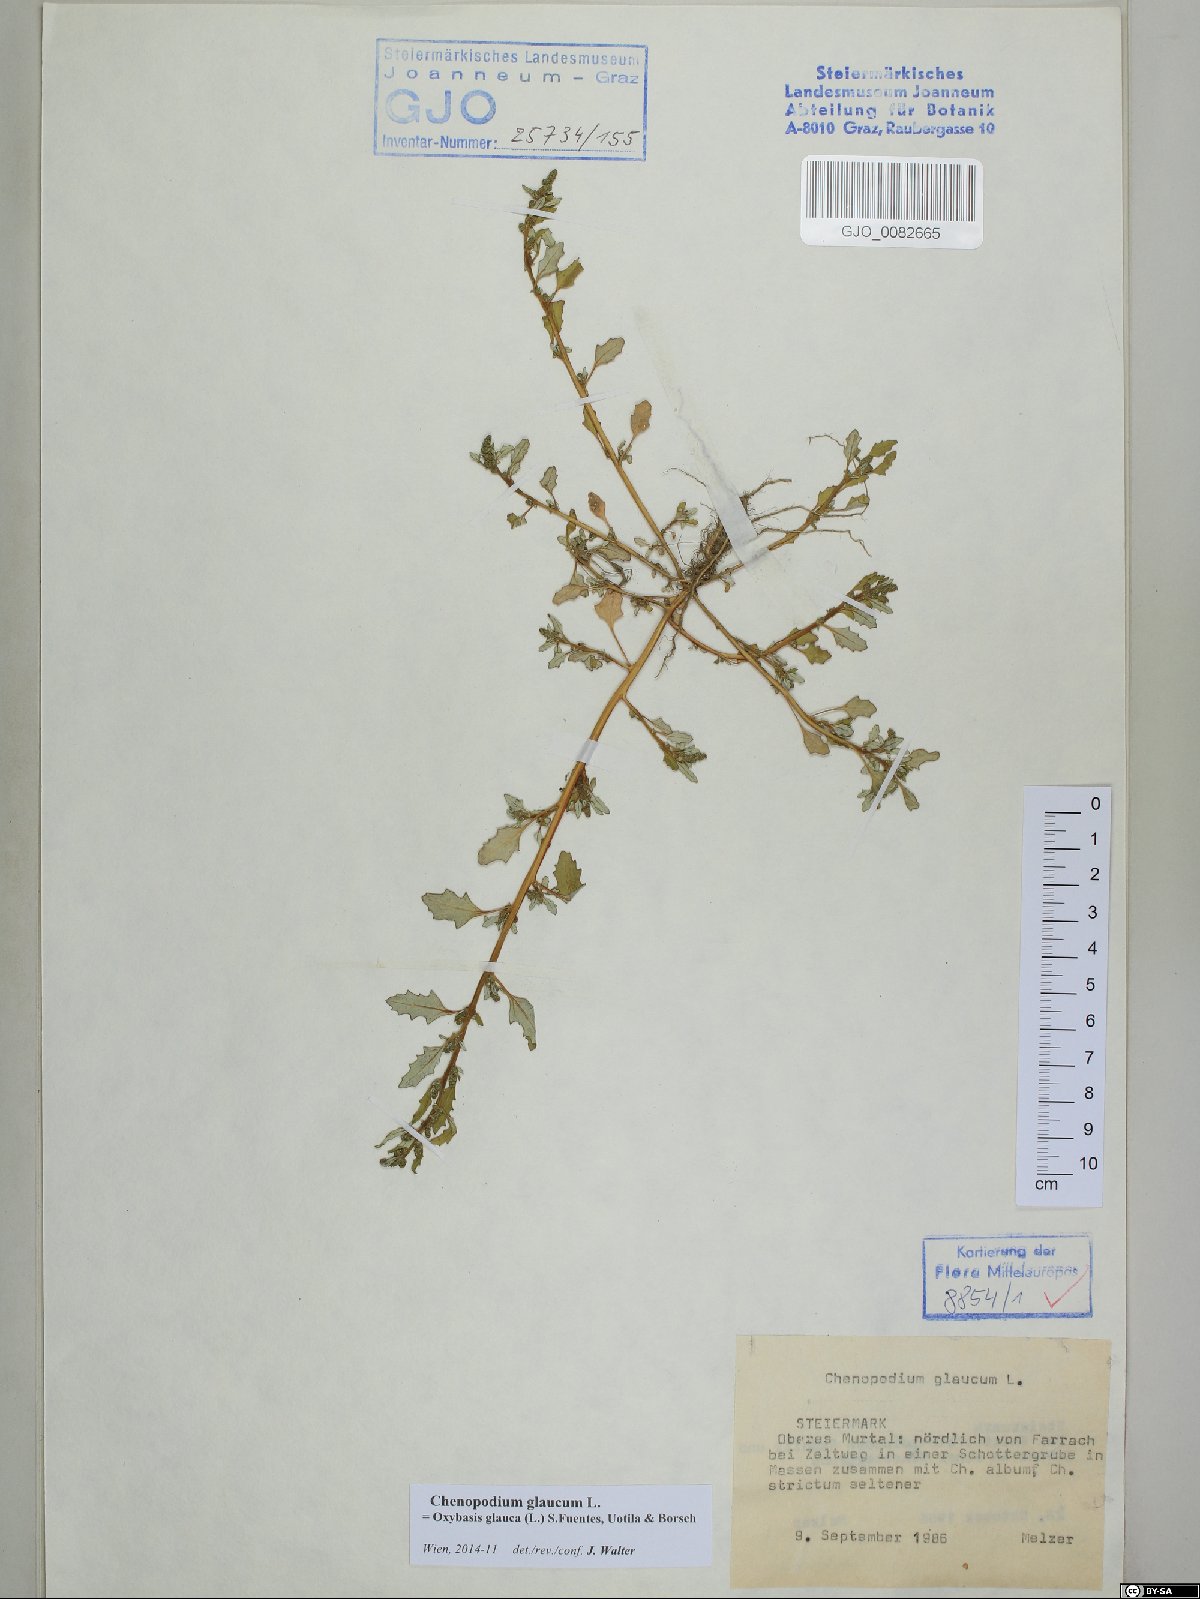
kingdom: Plantae
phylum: Tracheophyta
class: Magnoliopsida
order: Caryophyllales
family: Amaranthaceae
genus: Oxybasis
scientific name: Oxybasis glauca
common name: Glaucous goosefoot
